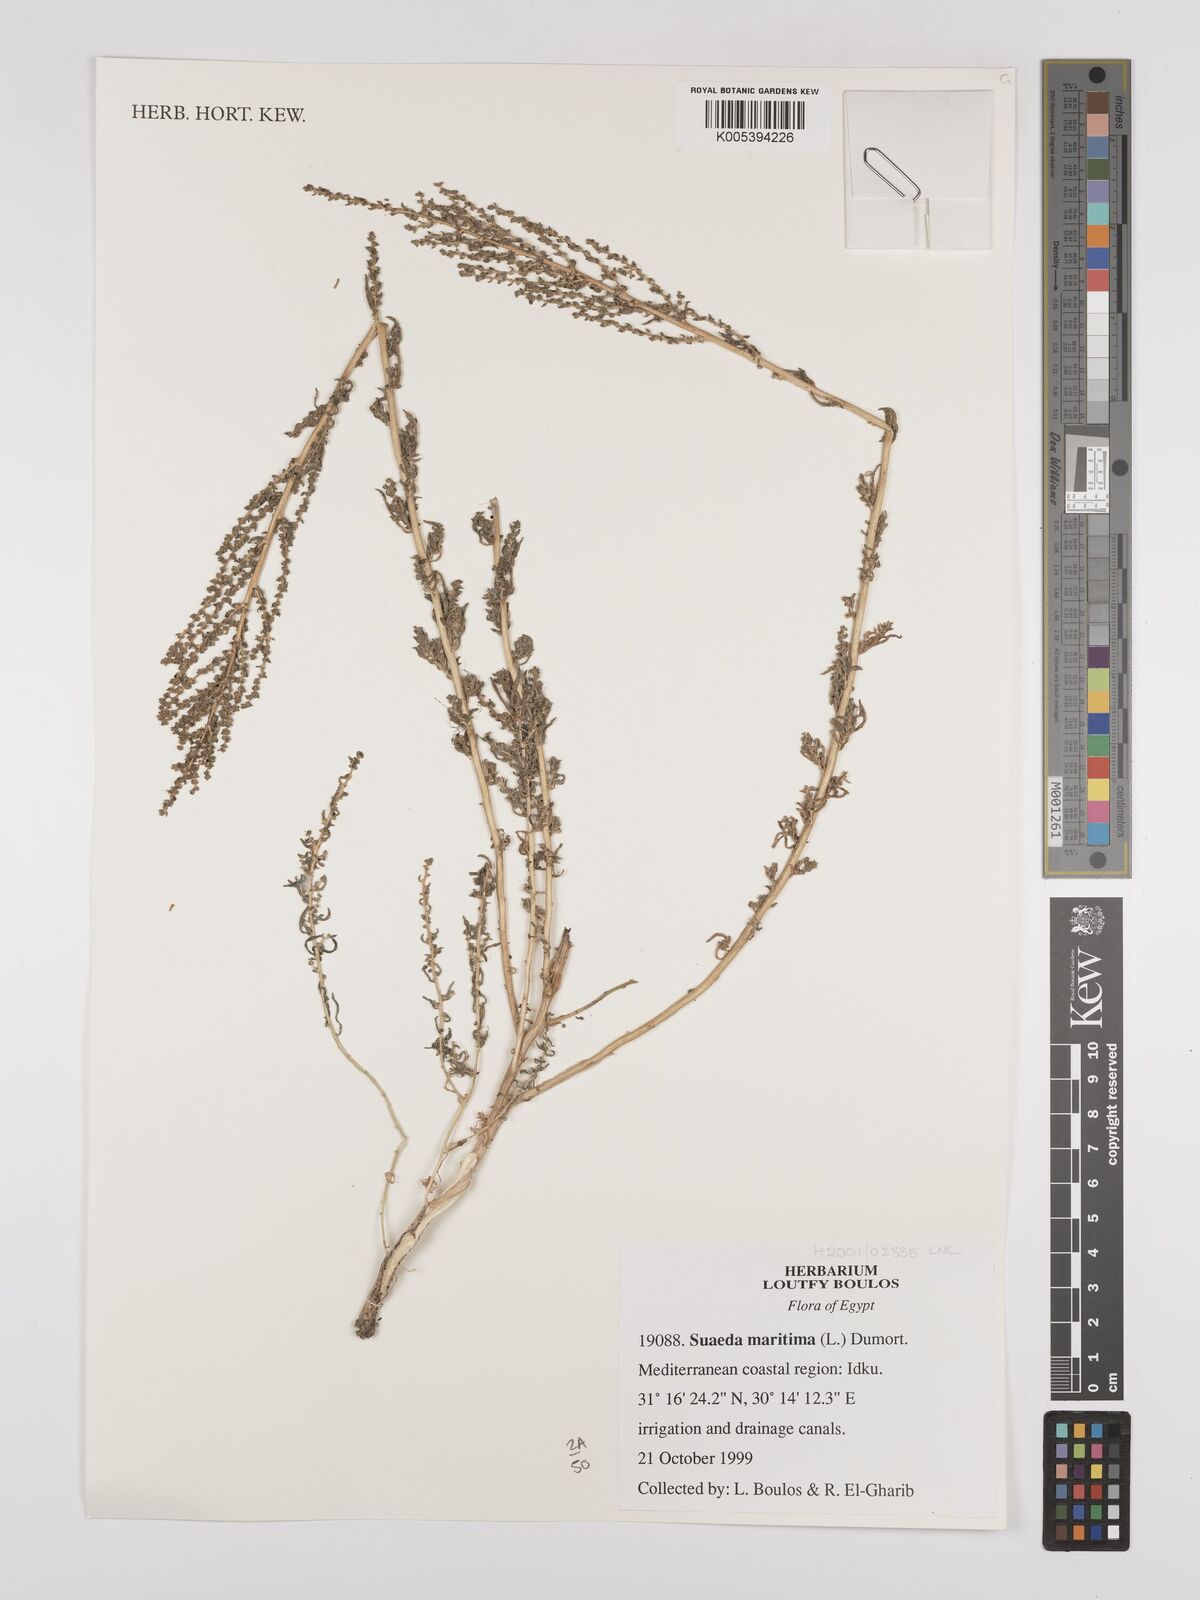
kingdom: Plantae
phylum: Tracheophyta
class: Magnoliopsida
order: Caryophyllales
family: Amaranthaceae
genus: Suaeda
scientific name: Suaeda
